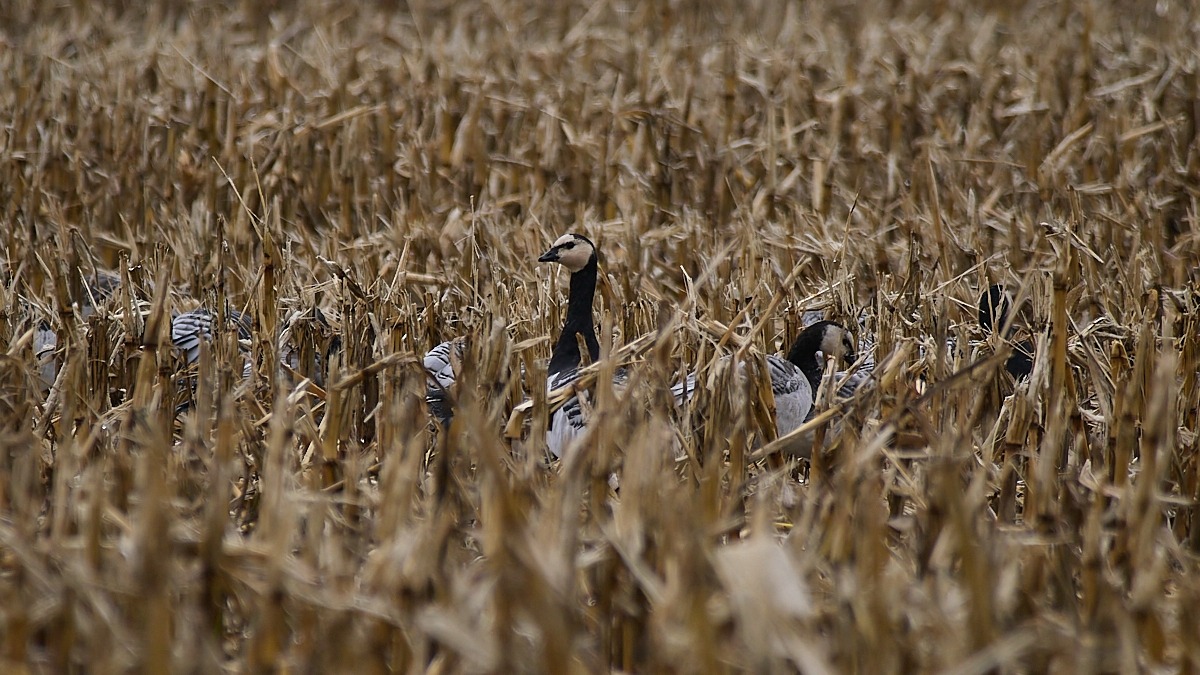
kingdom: Animalia
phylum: Chordata
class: Aves
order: Anseriformes
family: Anatidae
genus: Branta
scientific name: Branta leucopsis
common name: Bramgås
